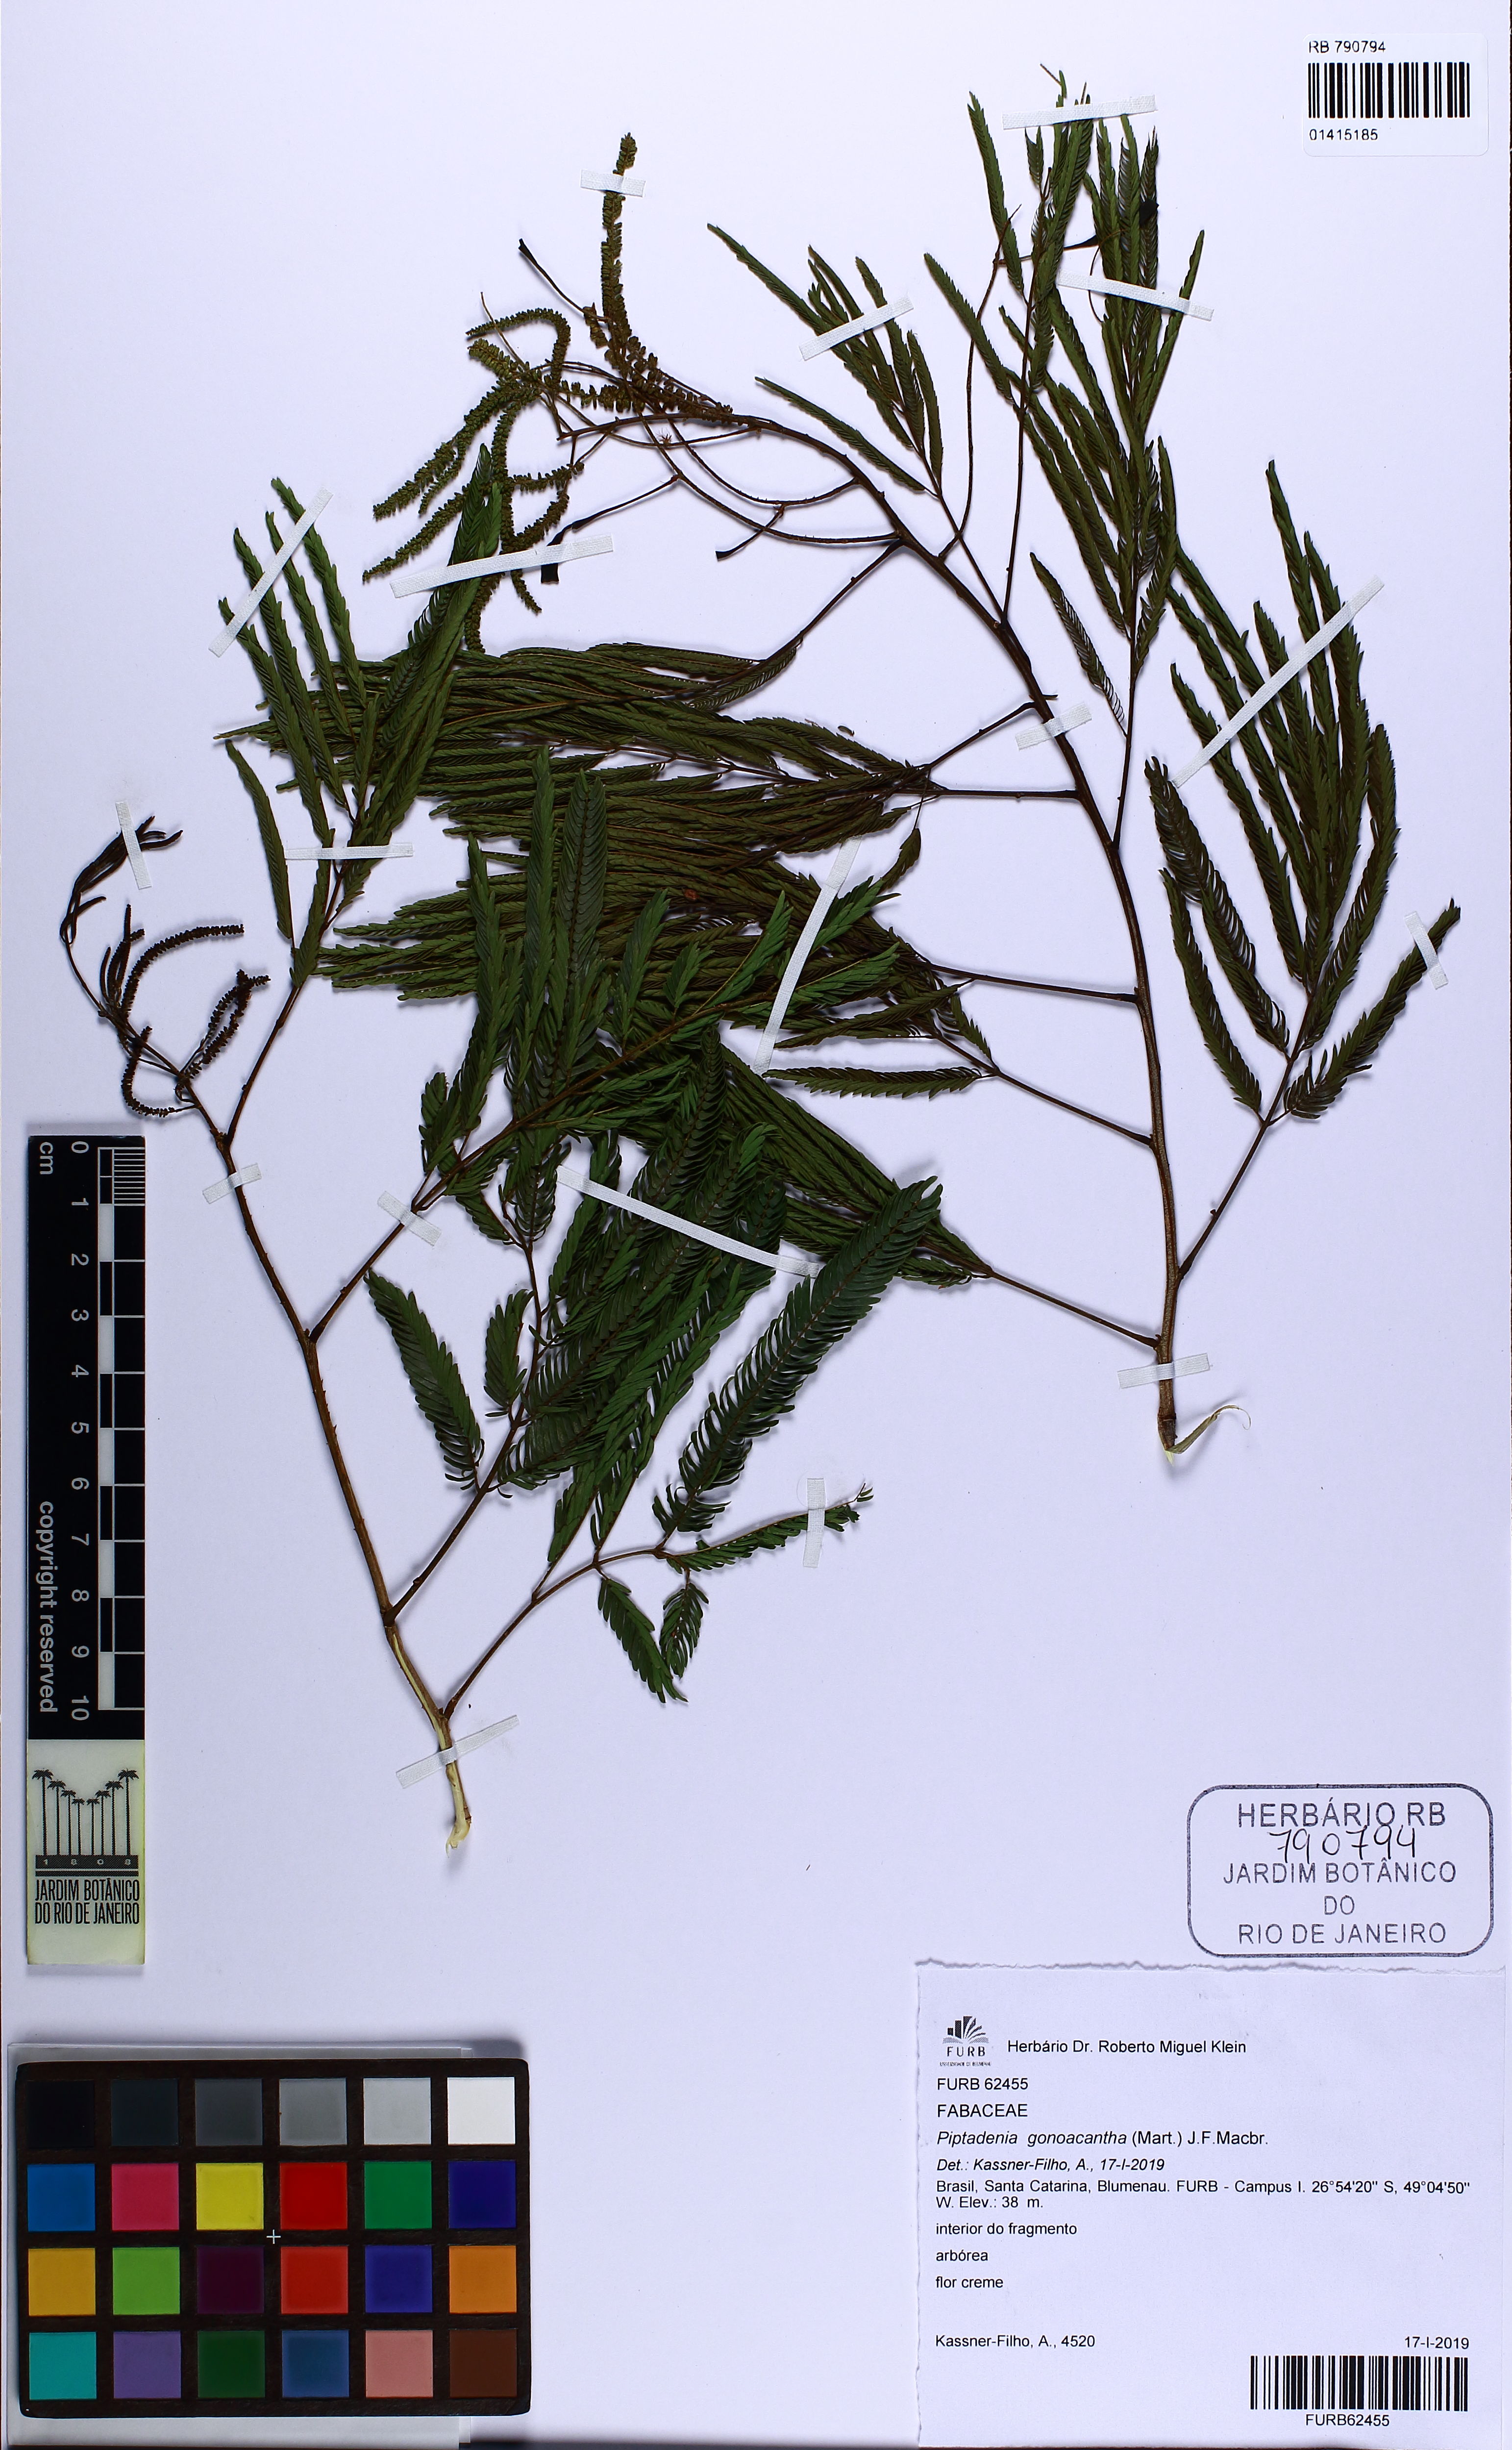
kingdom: Plantae
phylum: Tracheophyta
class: Magnoliopsida
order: Fabales
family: Fabaceae
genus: Piptadenia
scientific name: Piptadenia gonoacantha
